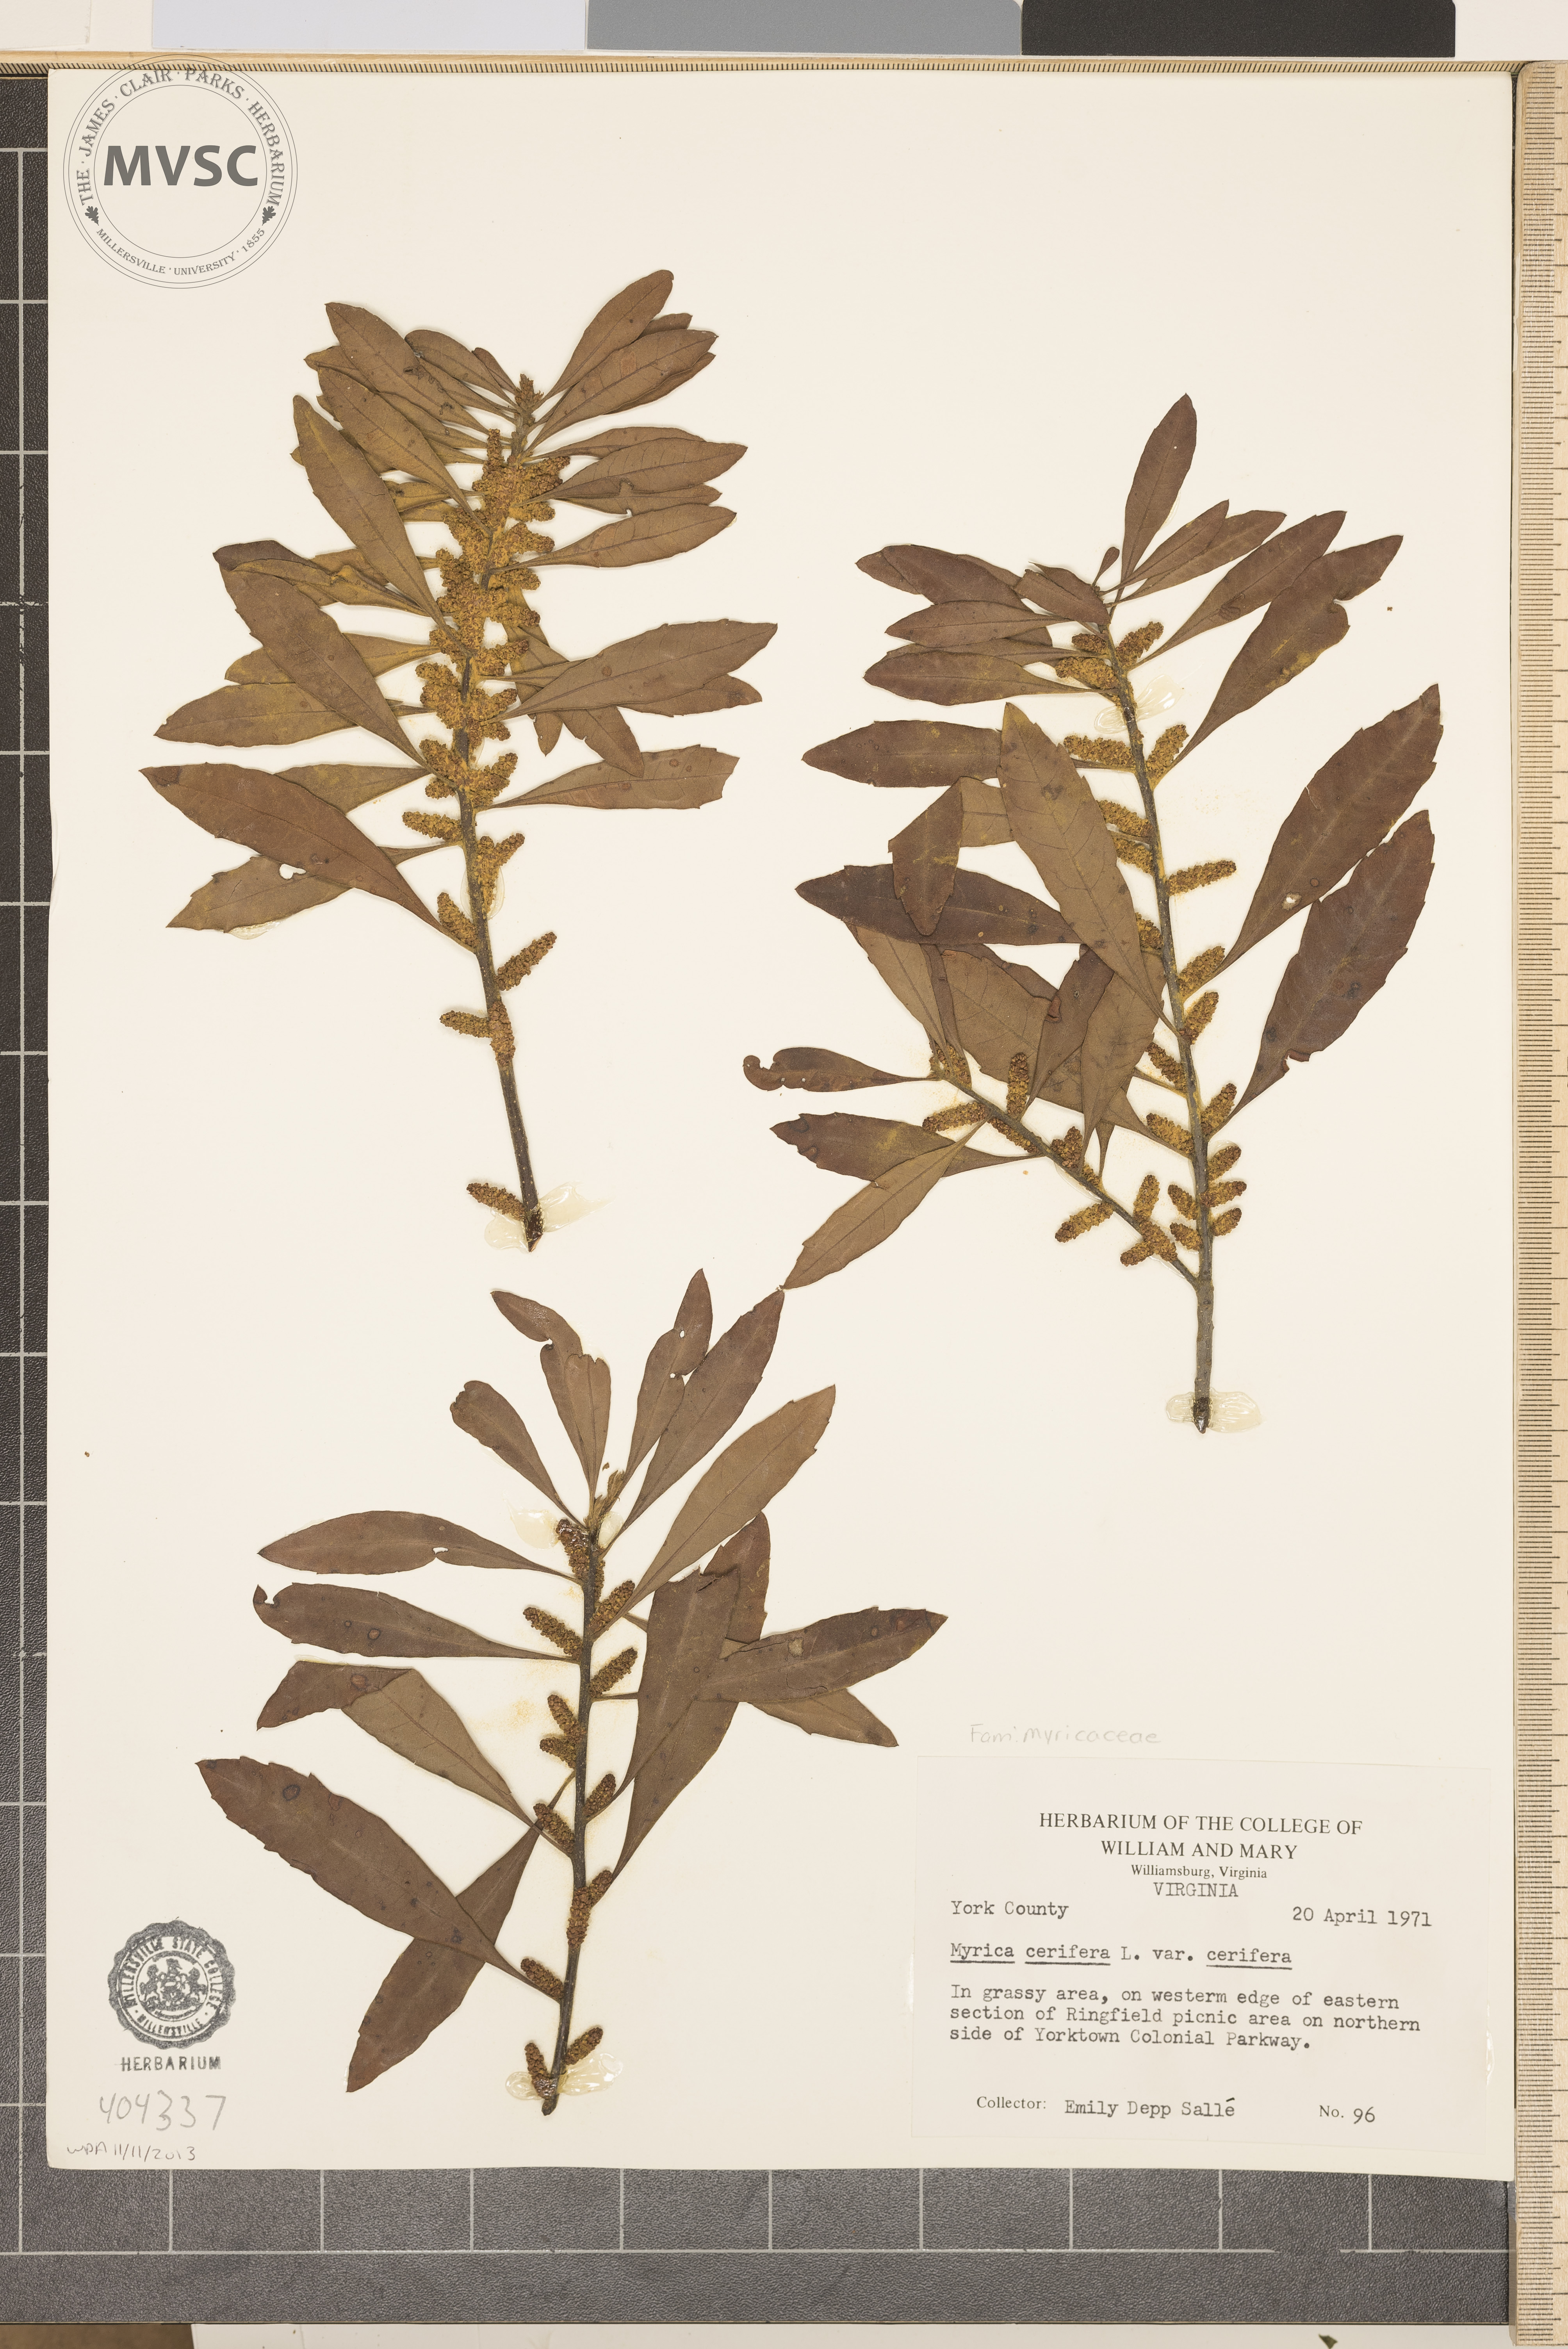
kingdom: Plantae
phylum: Tracheophyta
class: Magnoliopsida
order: Fagales
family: Myricaceae
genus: Myrica
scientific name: Myrica cerifera
